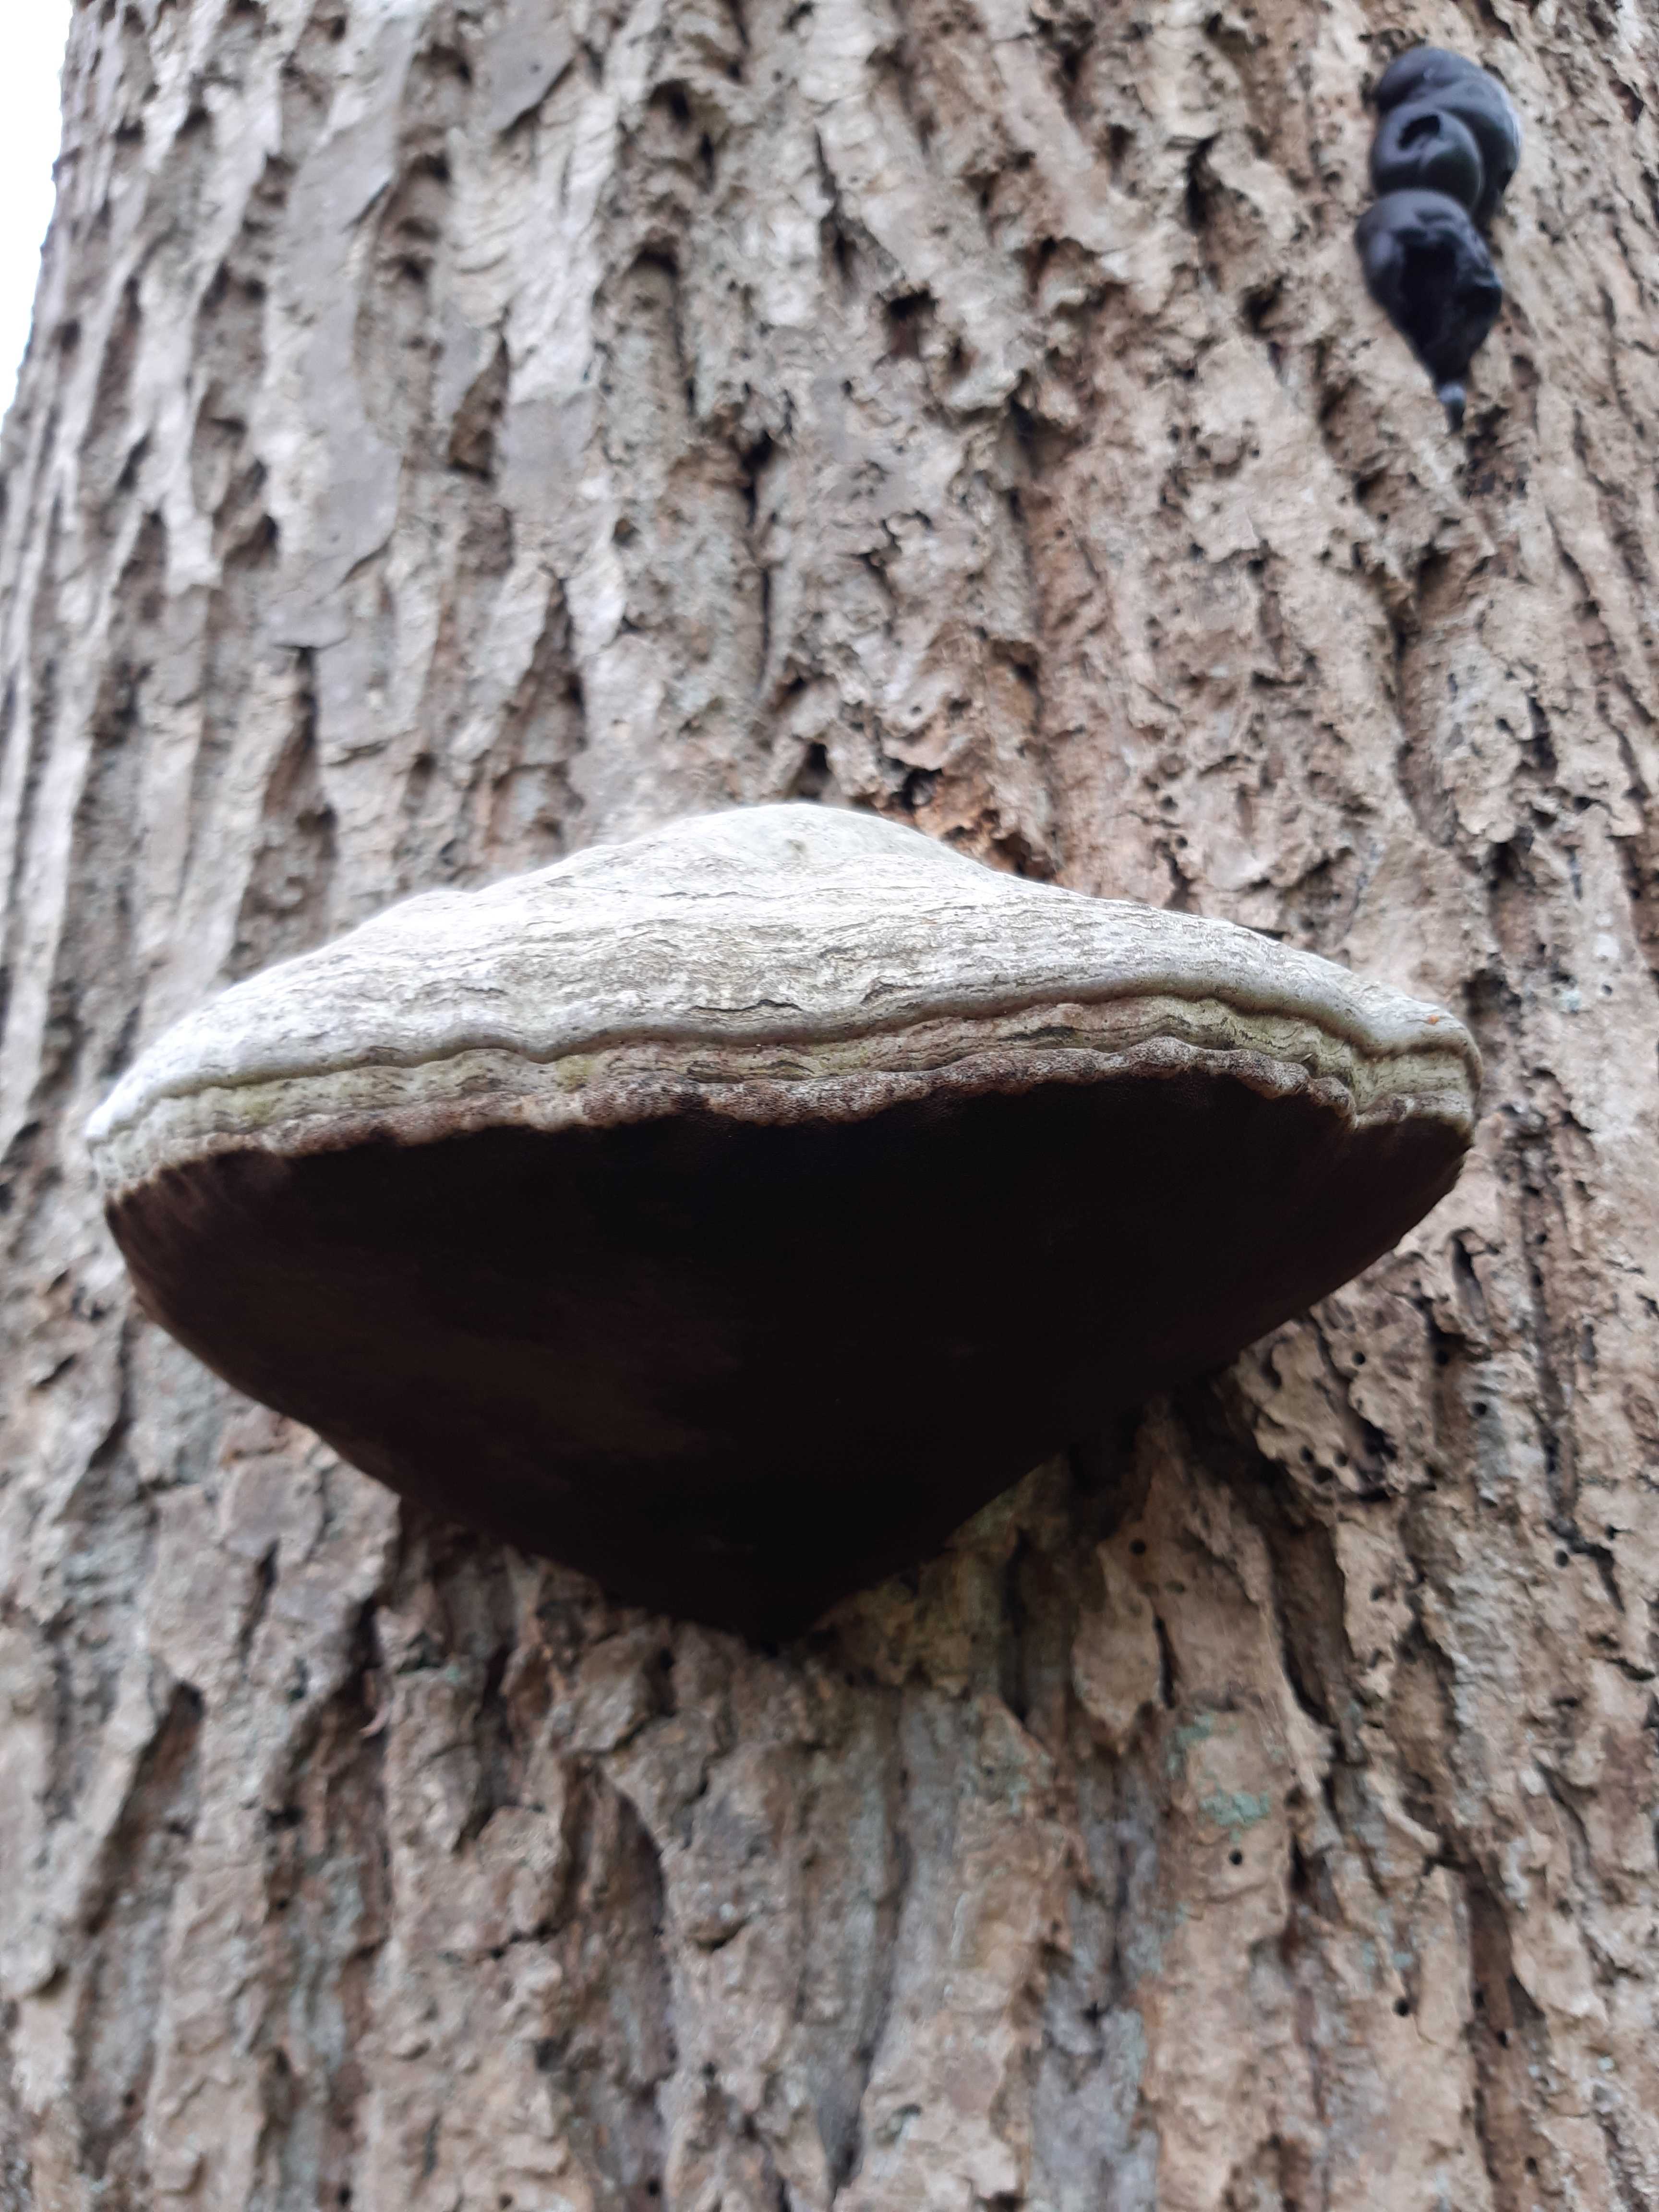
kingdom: Fungi
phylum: Basidiomycota
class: Agaricomycetes
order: Polyporales
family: Polyporaceae
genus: Fomes
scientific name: Fomes fomentarius
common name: tøndersvamp
